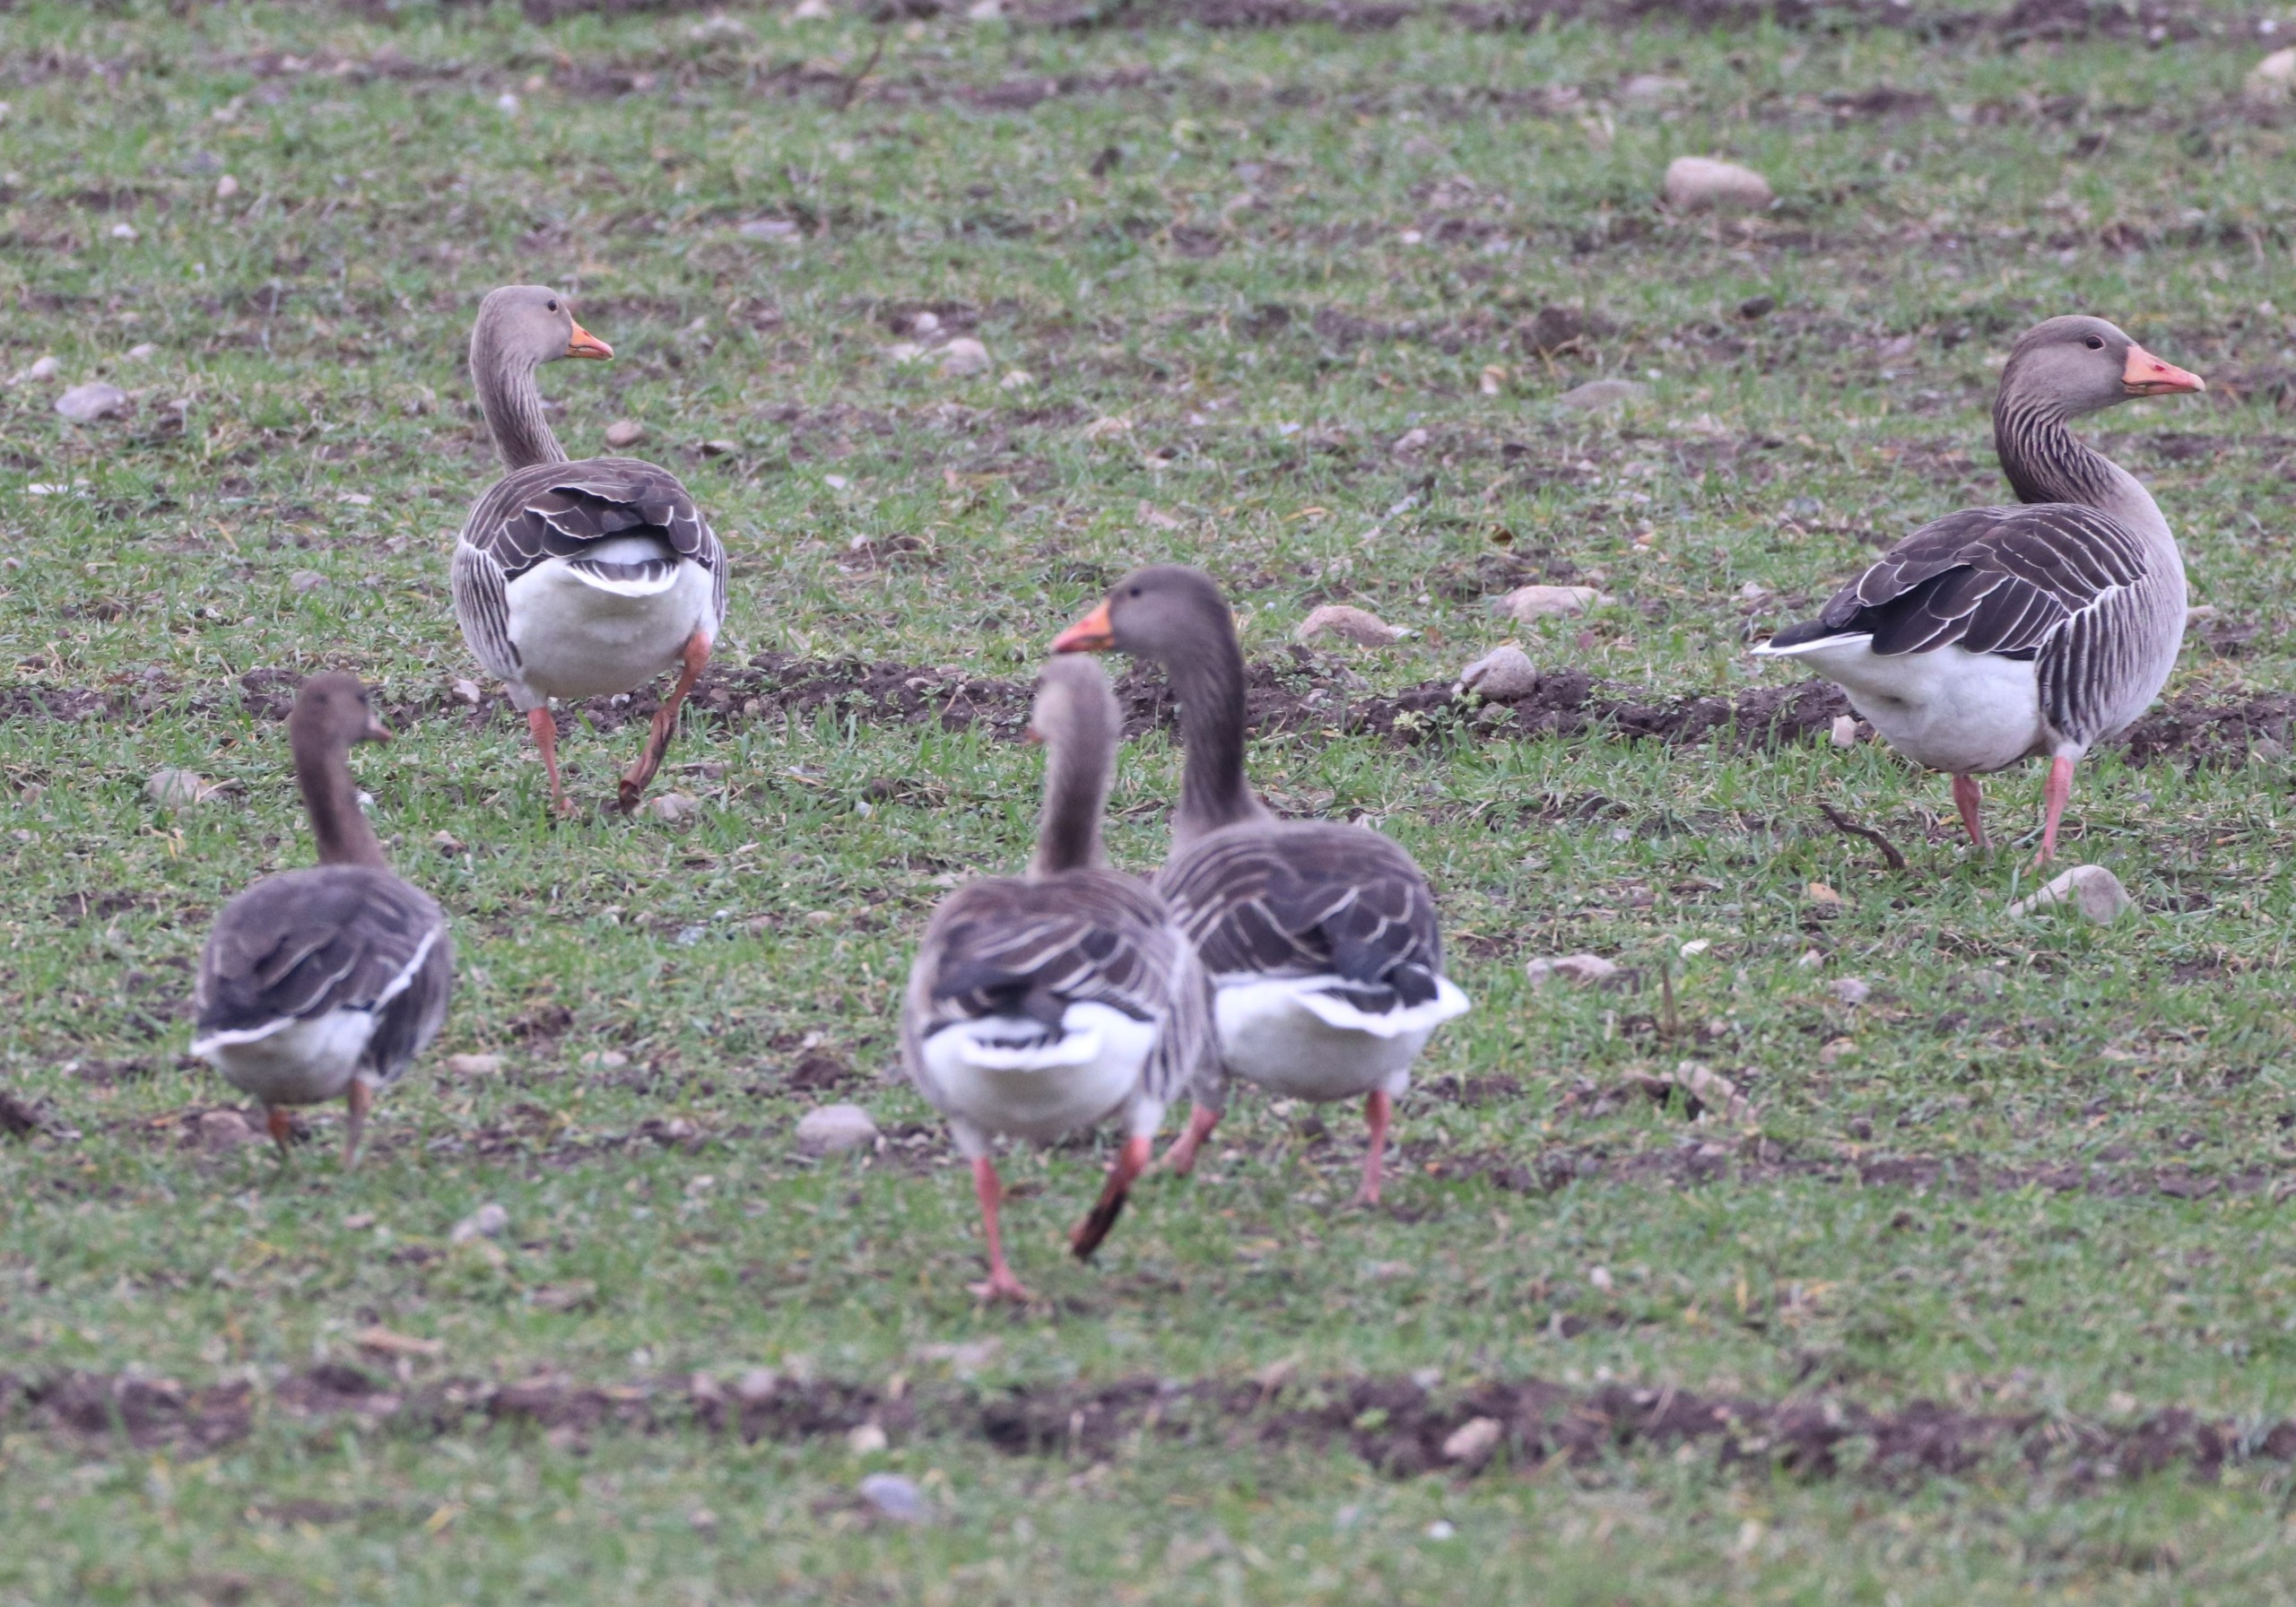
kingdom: Animalia
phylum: Chordata
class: Aves
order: Anseriformes
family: Anatidae
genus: Anser
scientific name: Anser anser
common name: Grågås
